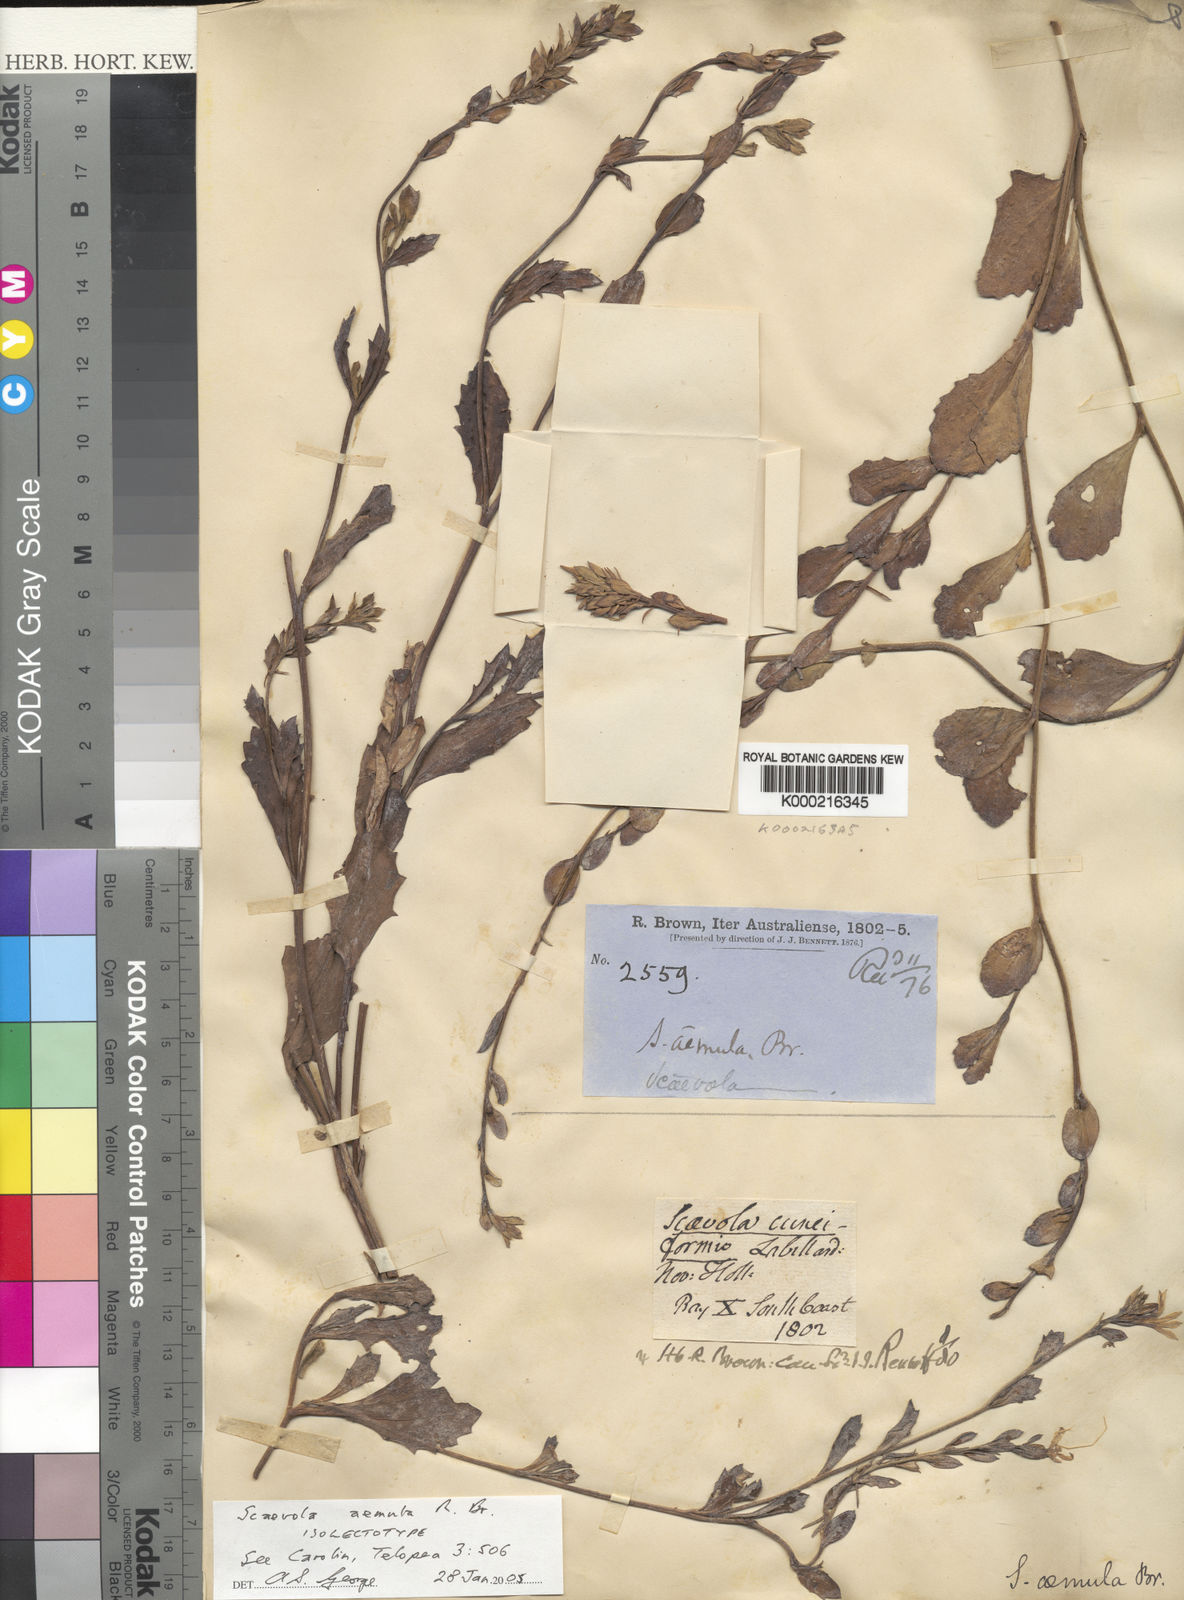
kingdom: Plantae
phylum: Tracheophyta
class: Magnoliopsida
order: Asterales
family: Goodeniaceae
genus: Scaevola
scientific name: Scaevola aemula
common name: Common fanflower
